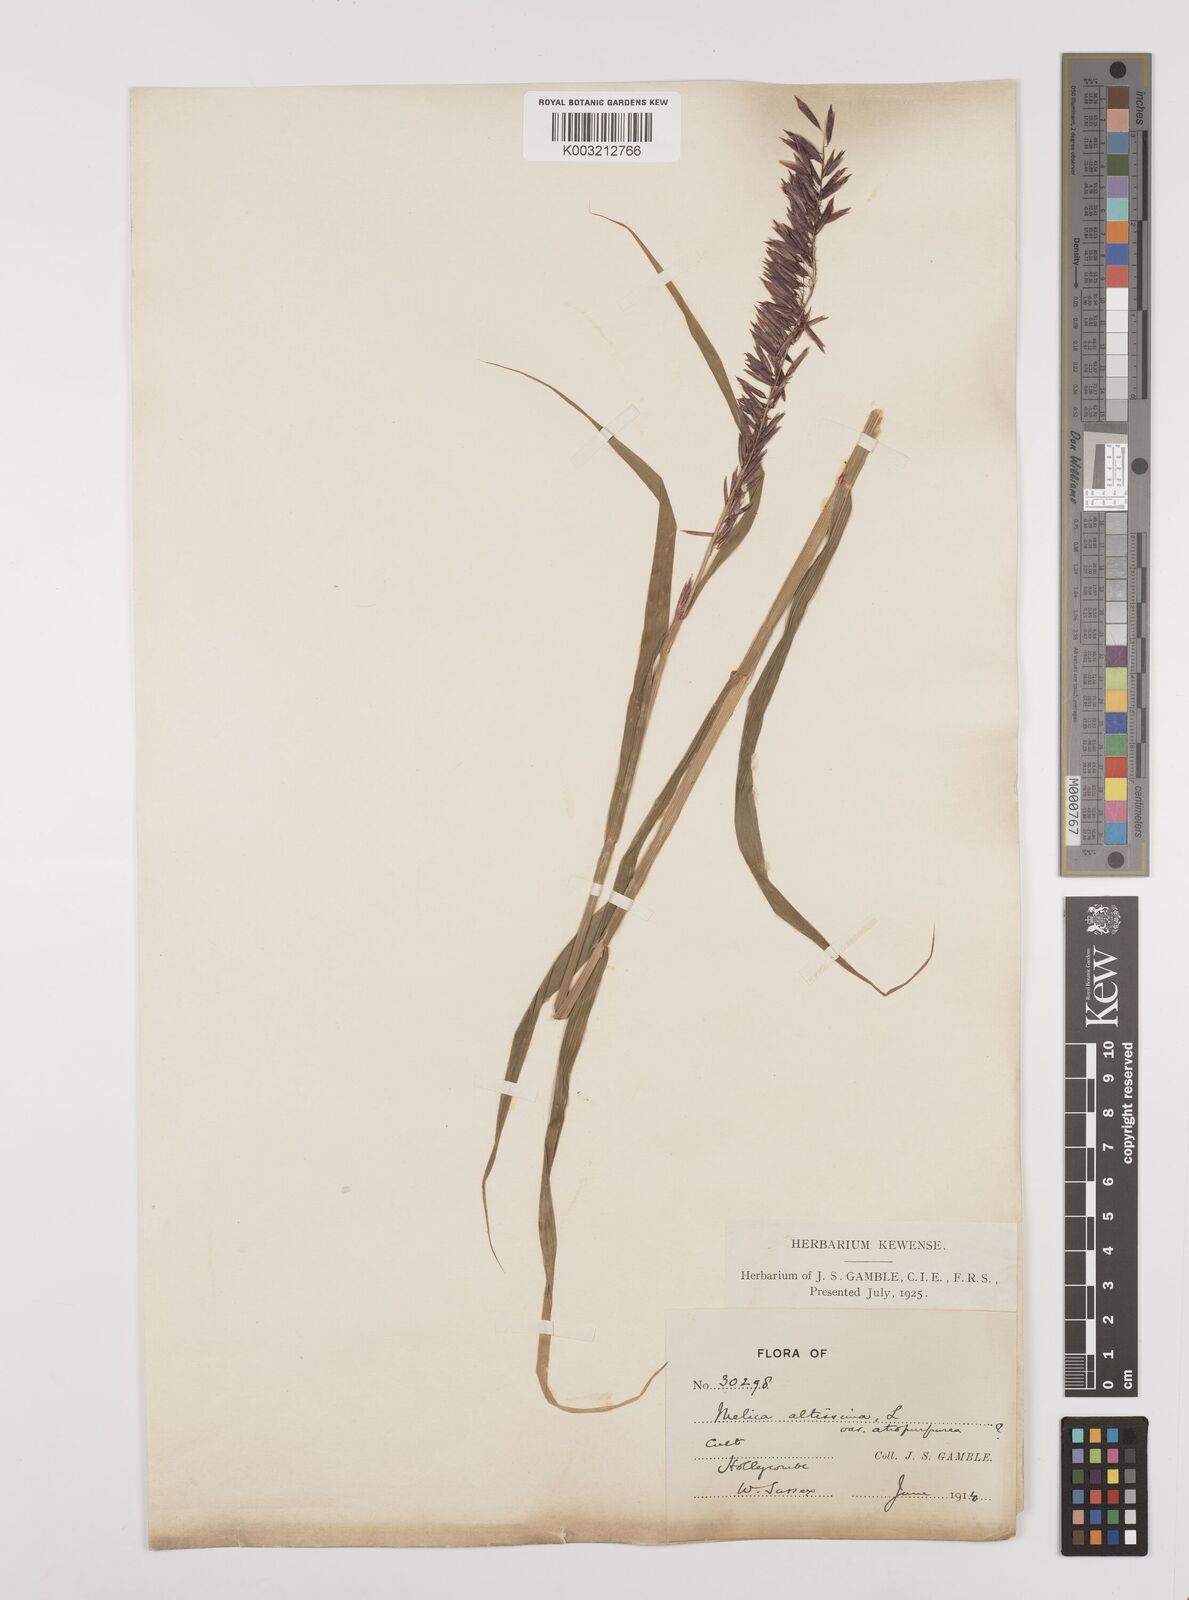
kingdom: Plantae
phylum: Tracheophyta
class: Liliopsida
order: Poales
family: Poaceae
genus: Melica
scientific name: Melica altissima
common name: Siberian melicgrass
